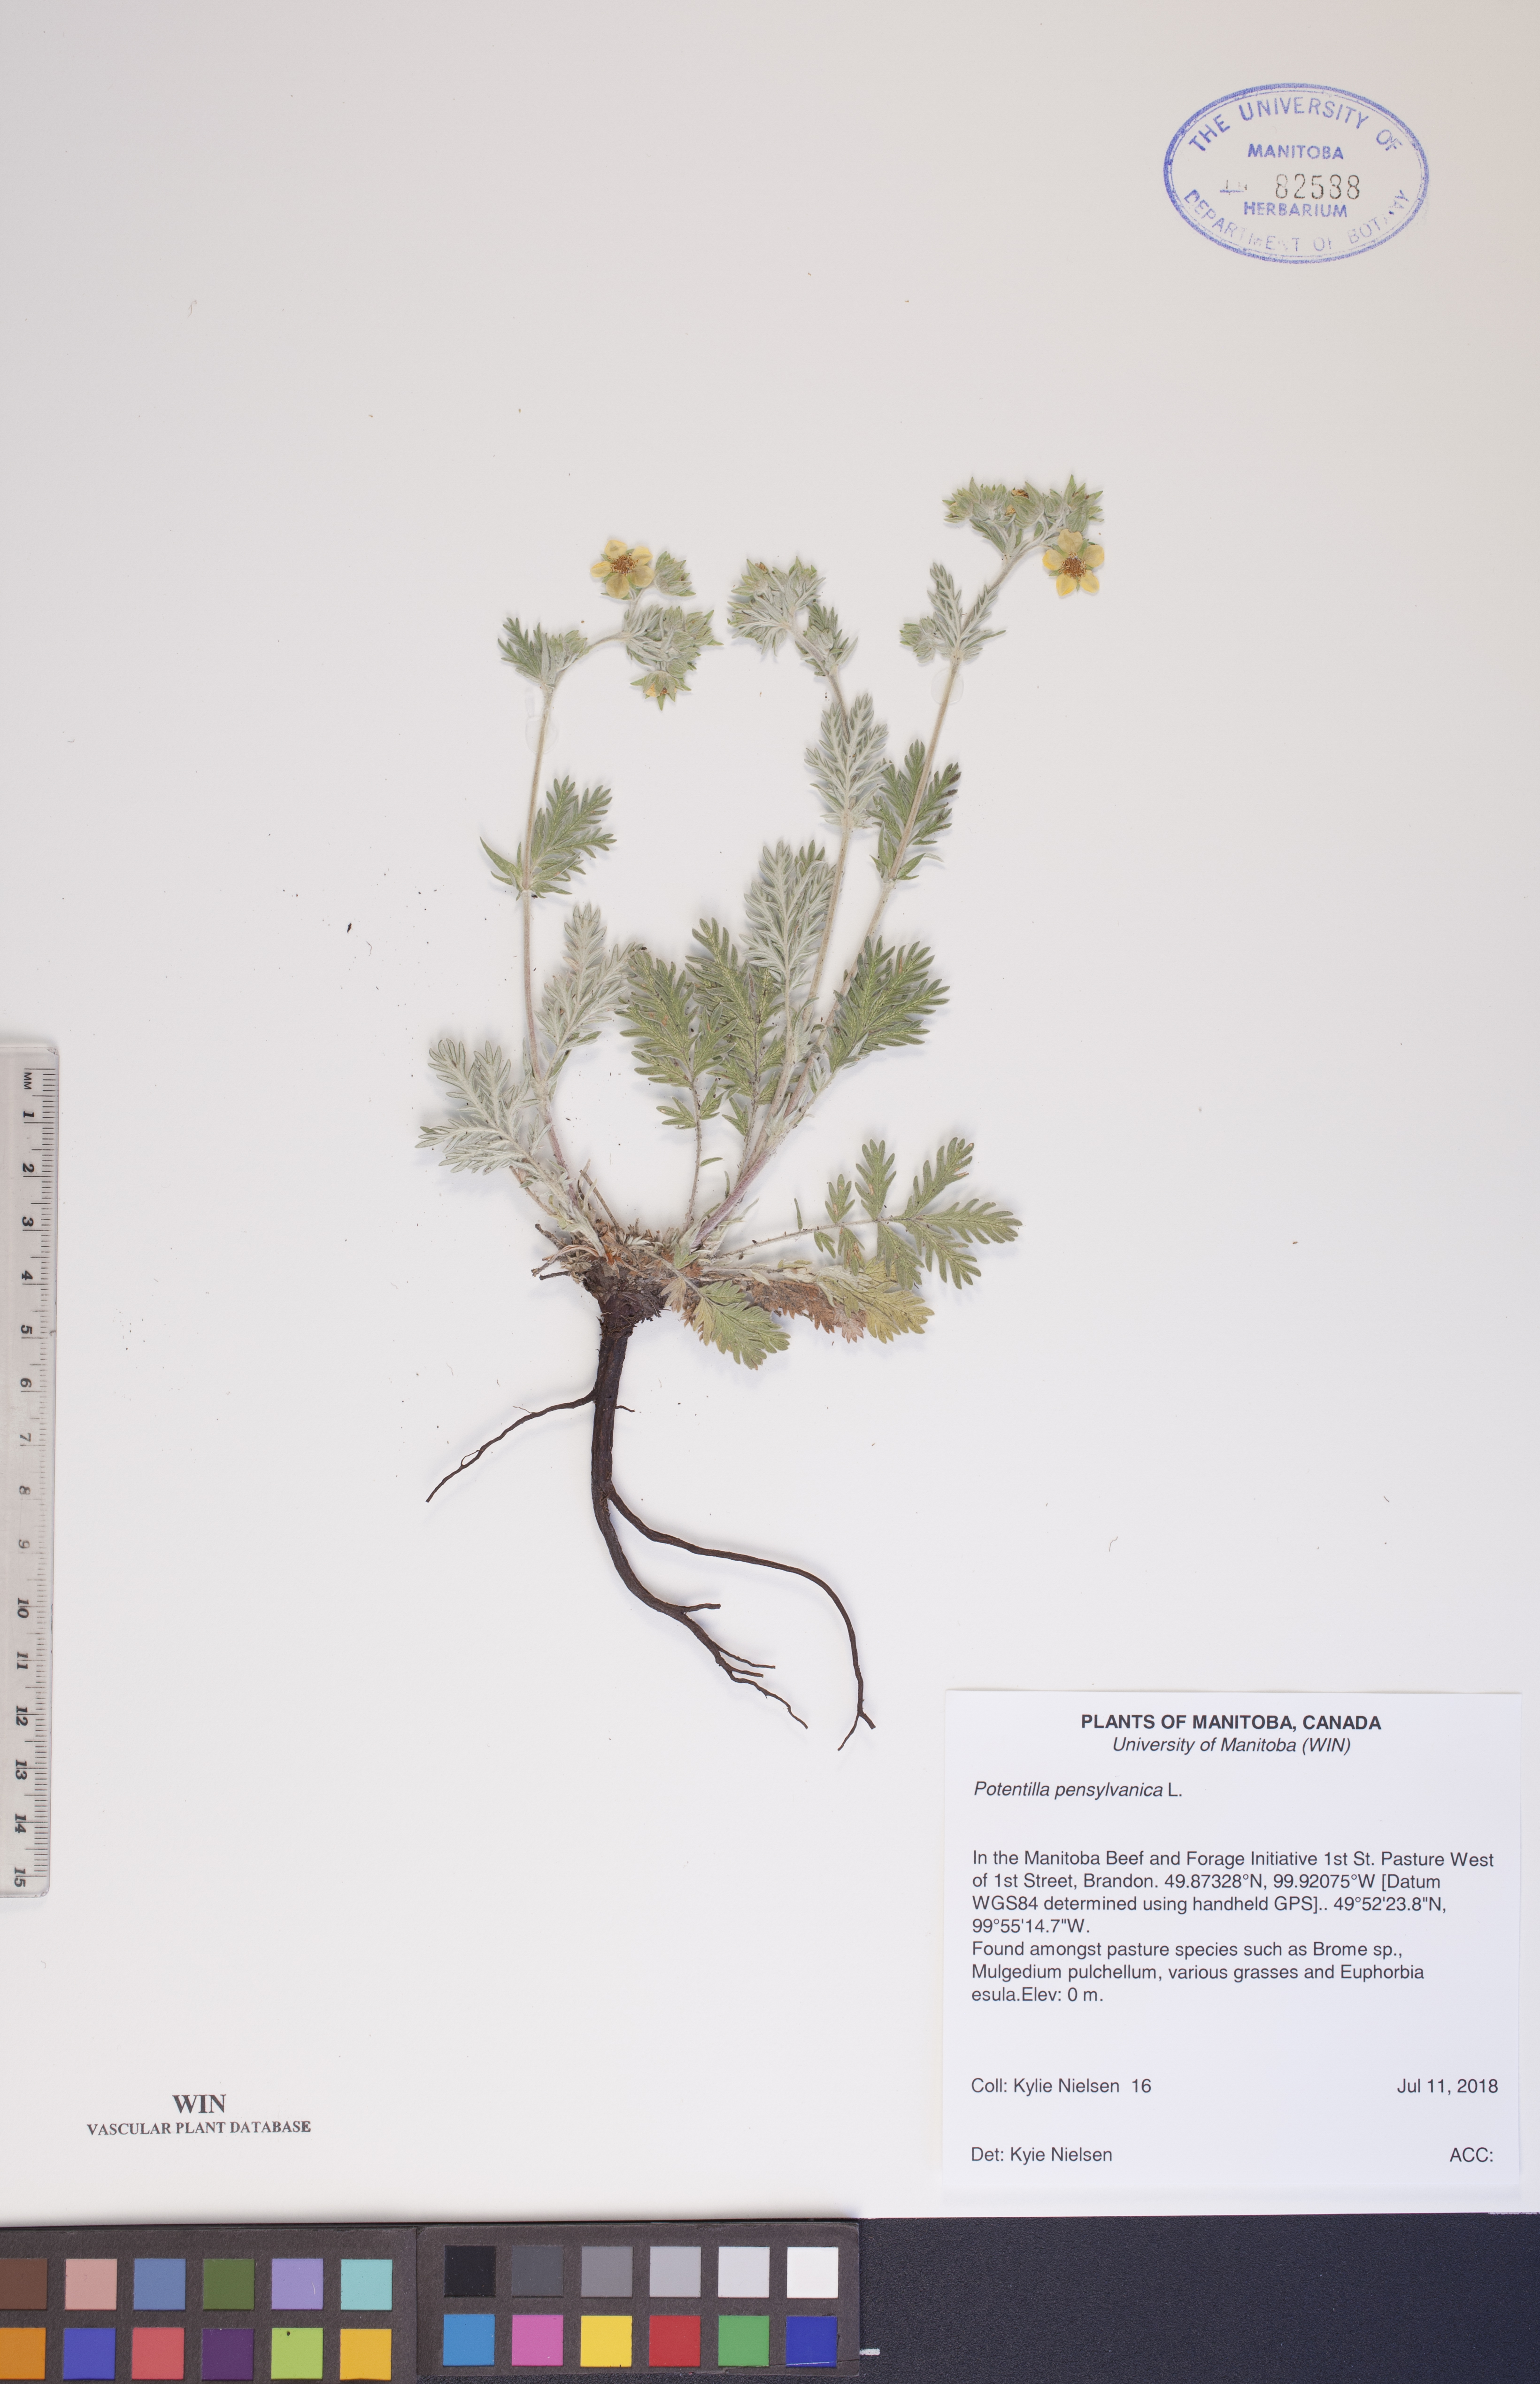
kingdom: Plantae
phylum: Tracheophyta
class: Magnoliopsida
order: Rosales
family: Rosaceae
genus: Potentilla
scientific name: Potentilla pensylvanica
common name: Pennsylvania cinquefoil
